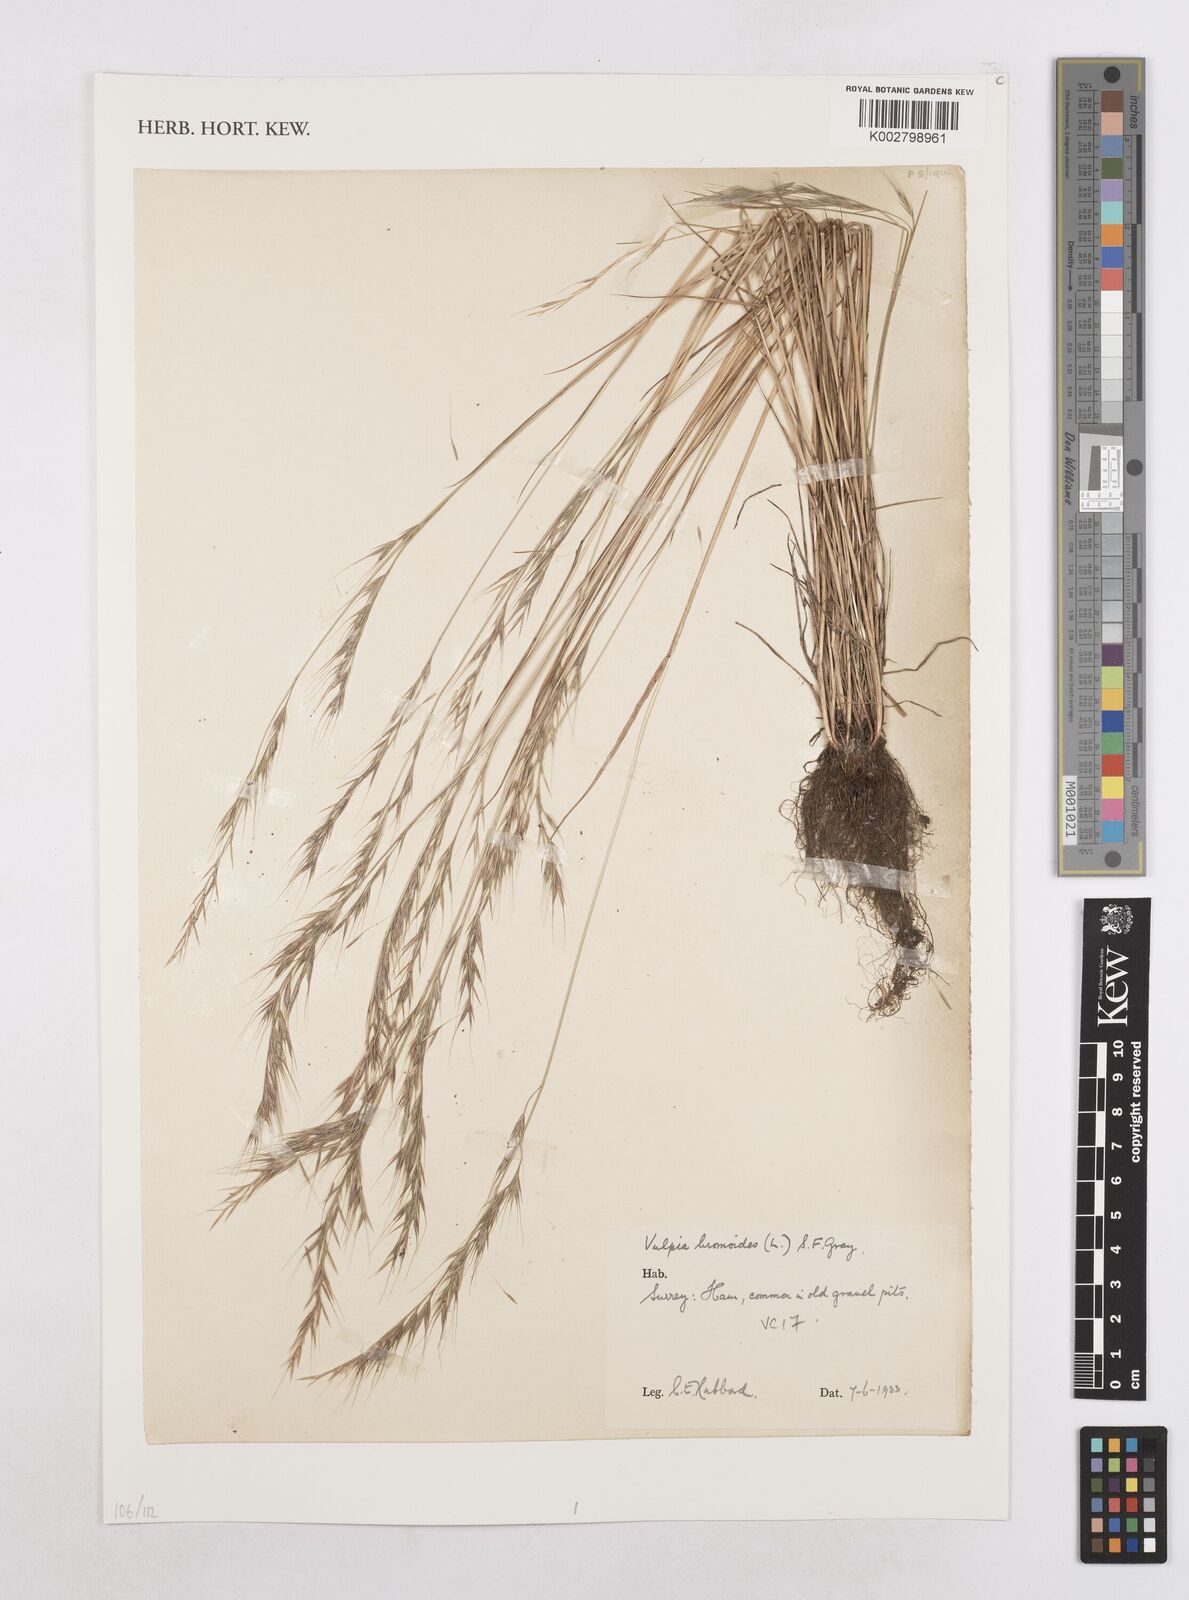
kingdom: Plantae
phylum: Tracheophyta
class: Liliopsida
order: Poales
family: Poaceae
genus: Festuca
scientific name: Festuca bromoides
